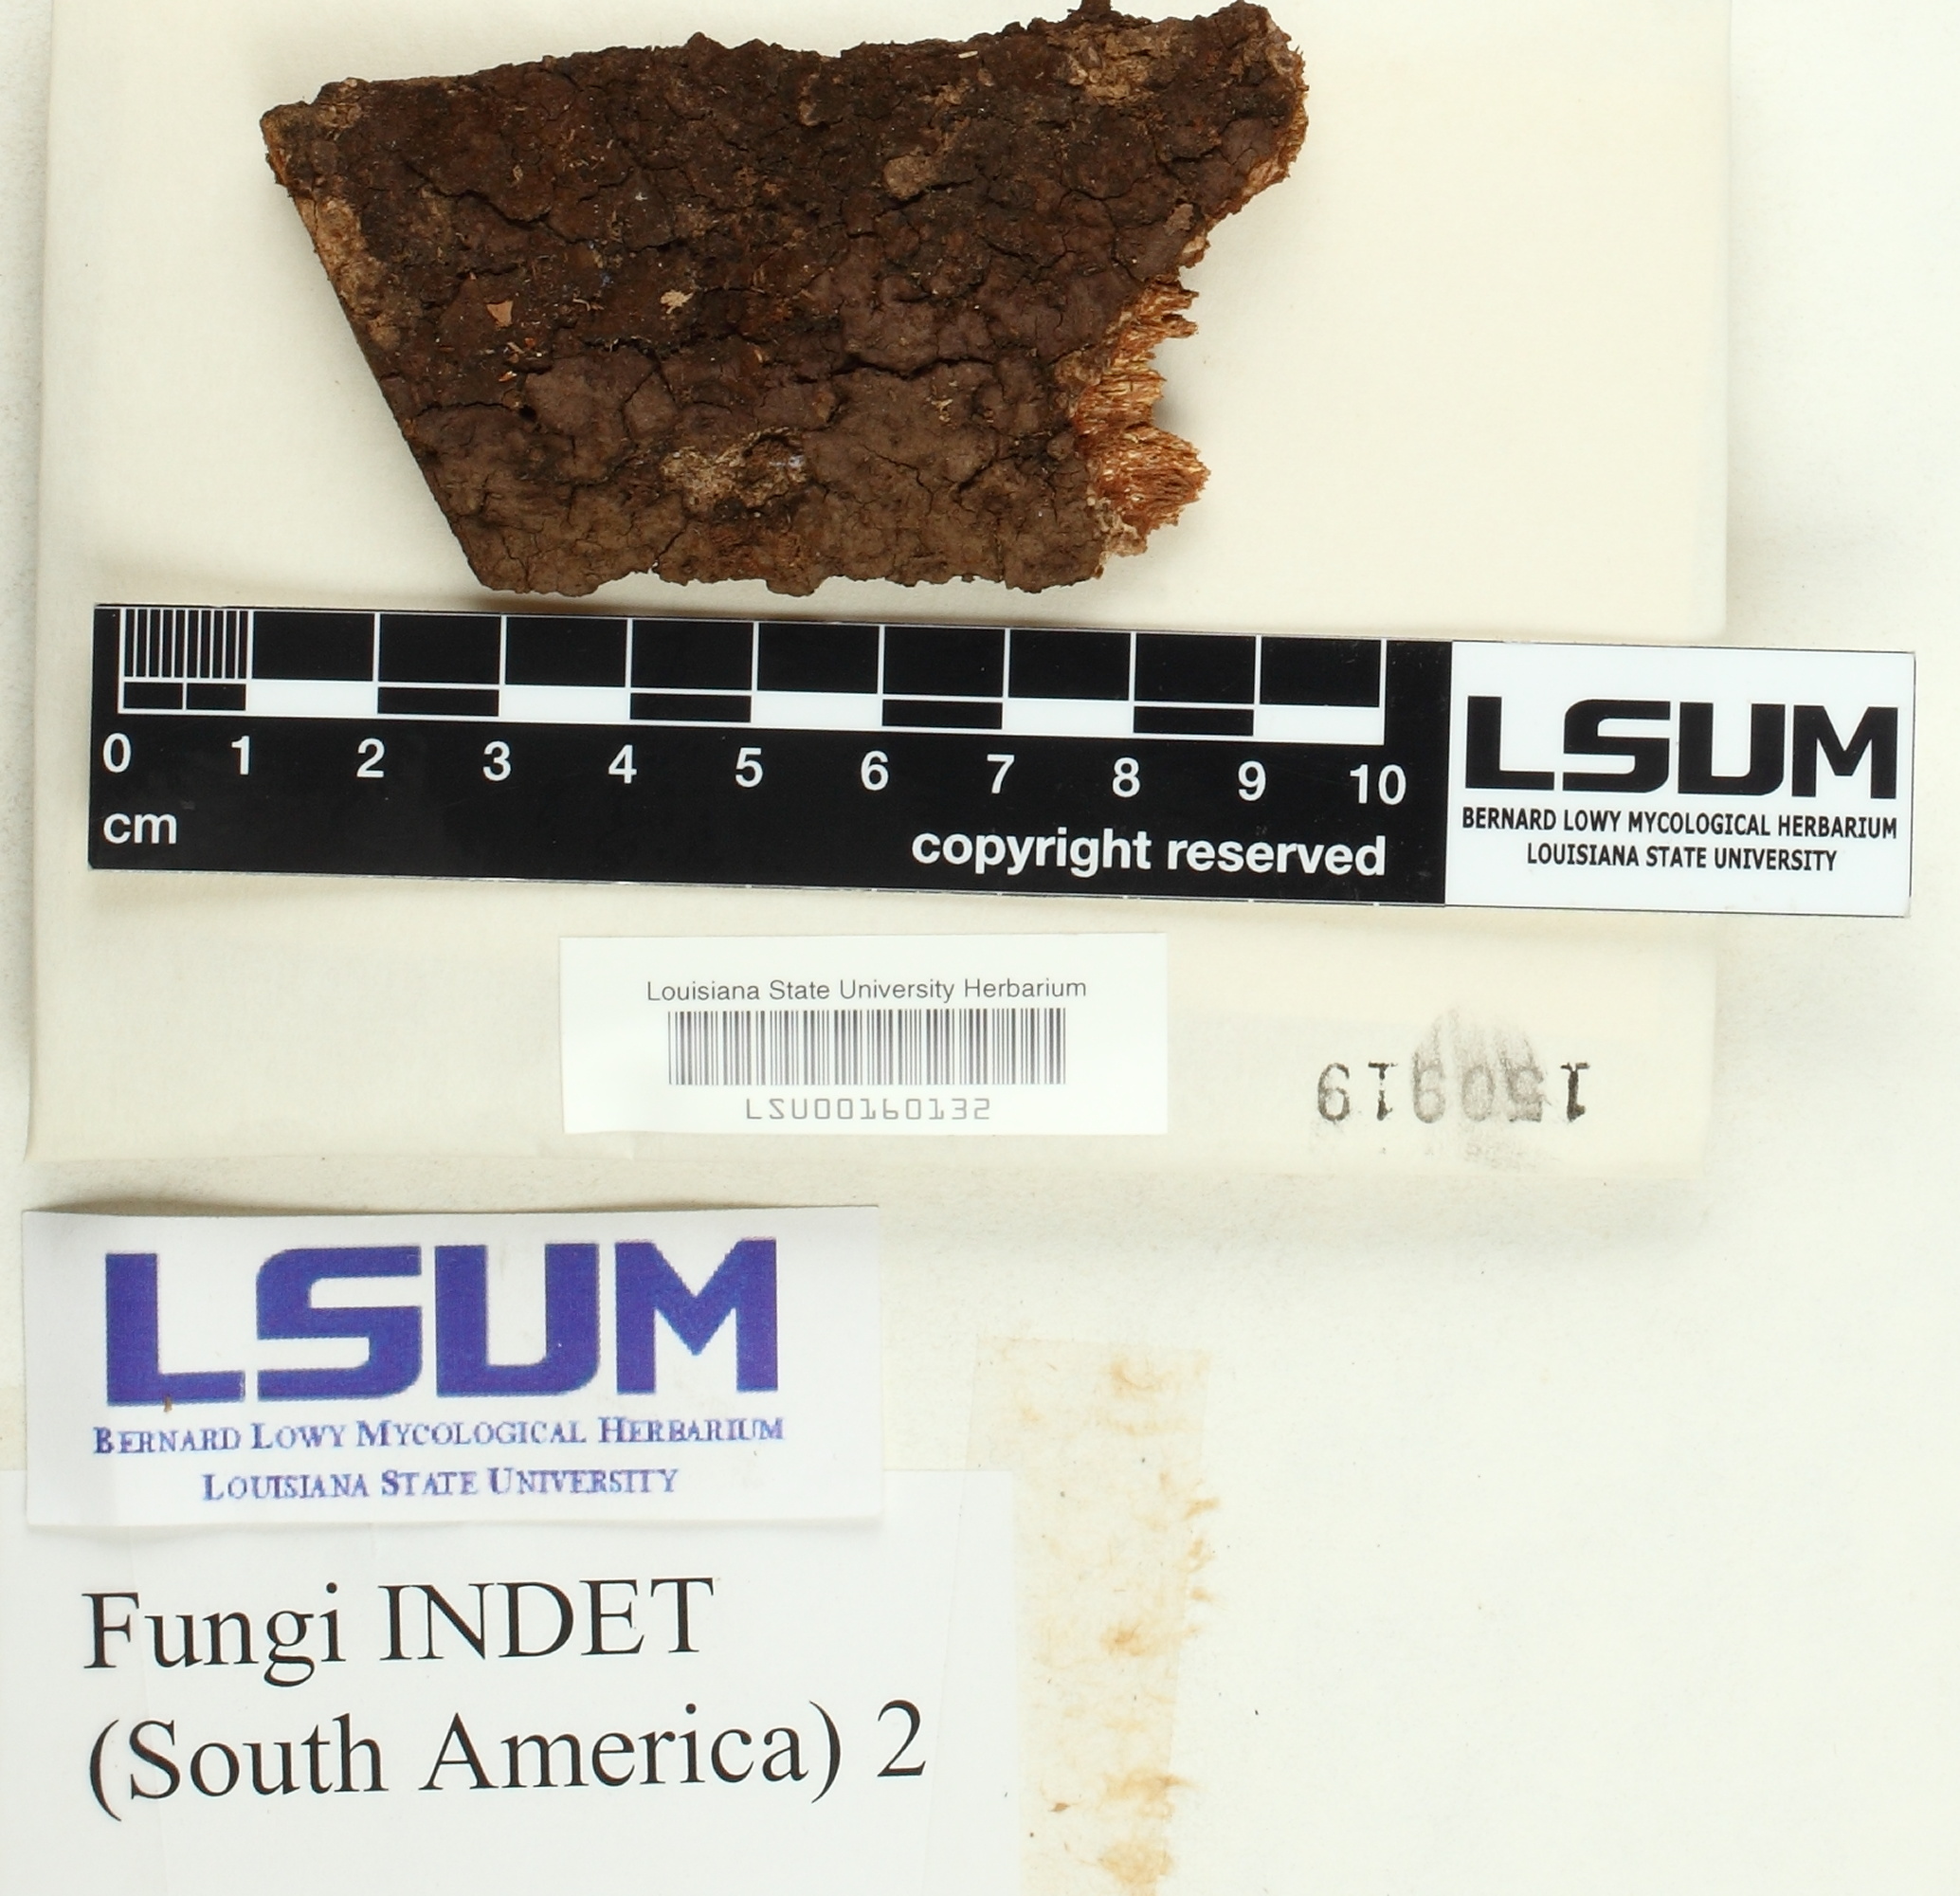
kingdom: Fungi
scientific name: Fungi
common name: Fungi
